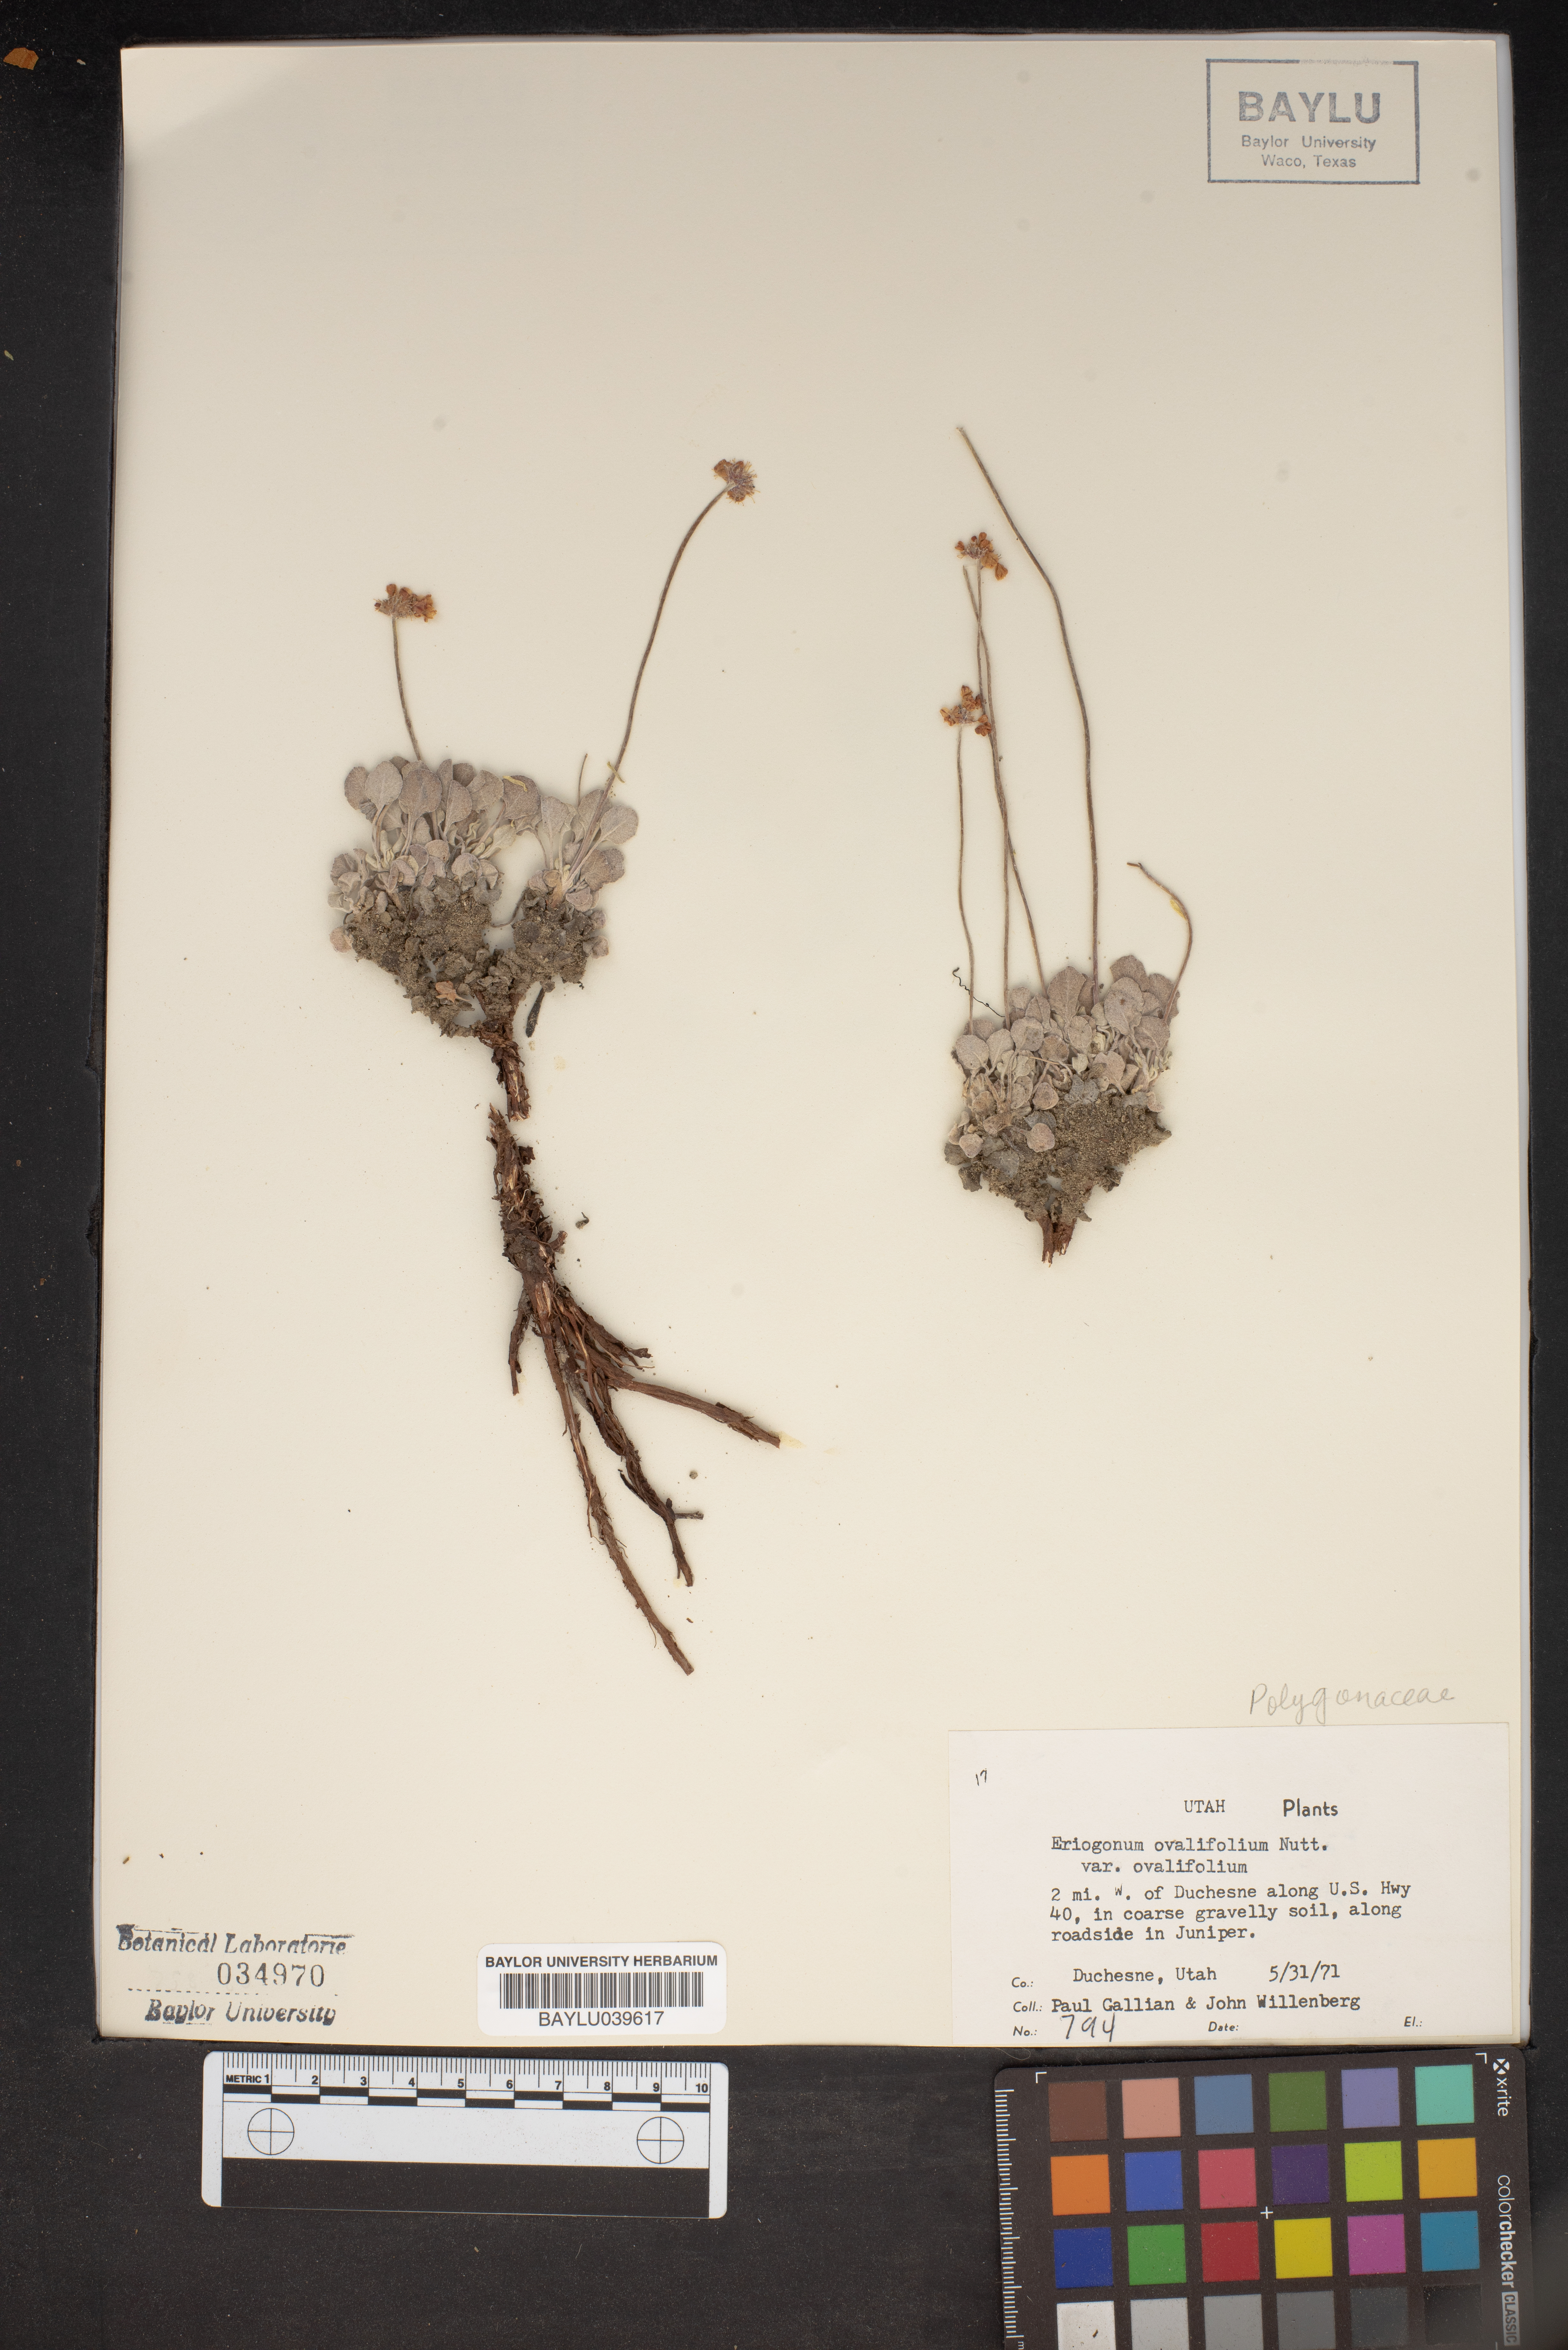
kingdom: Plantae
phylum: Tracheophyta
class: Magnoliopsida
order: Caryophyllales
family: Polygonaceae
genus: Eriogonum
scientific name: Eriogonum ovalifolium
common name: Cushion buckwheat
